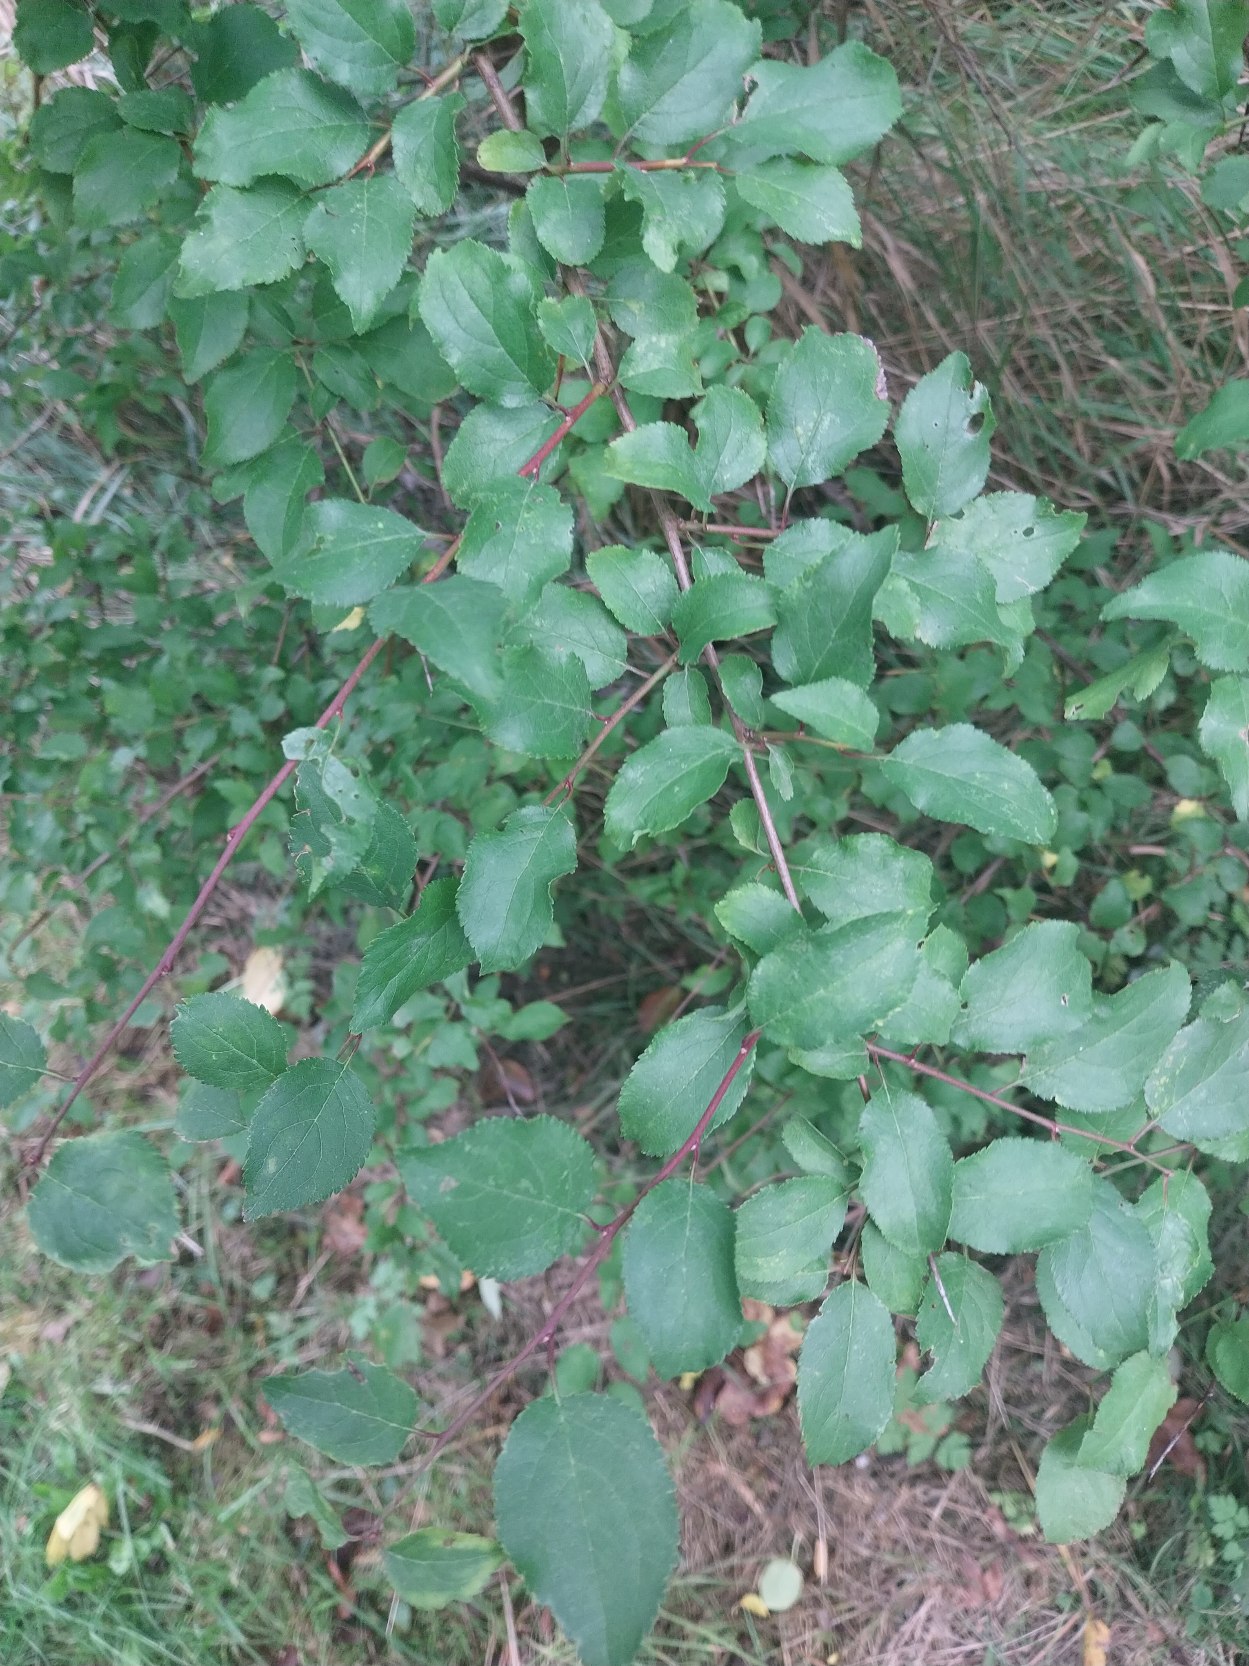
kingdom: Plantae
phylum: Tracheophyta
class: Magnoliopsida
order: Rosales
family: Rosaceae
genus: Prunus
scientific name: Prunus cerasifera
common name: Mirabel
